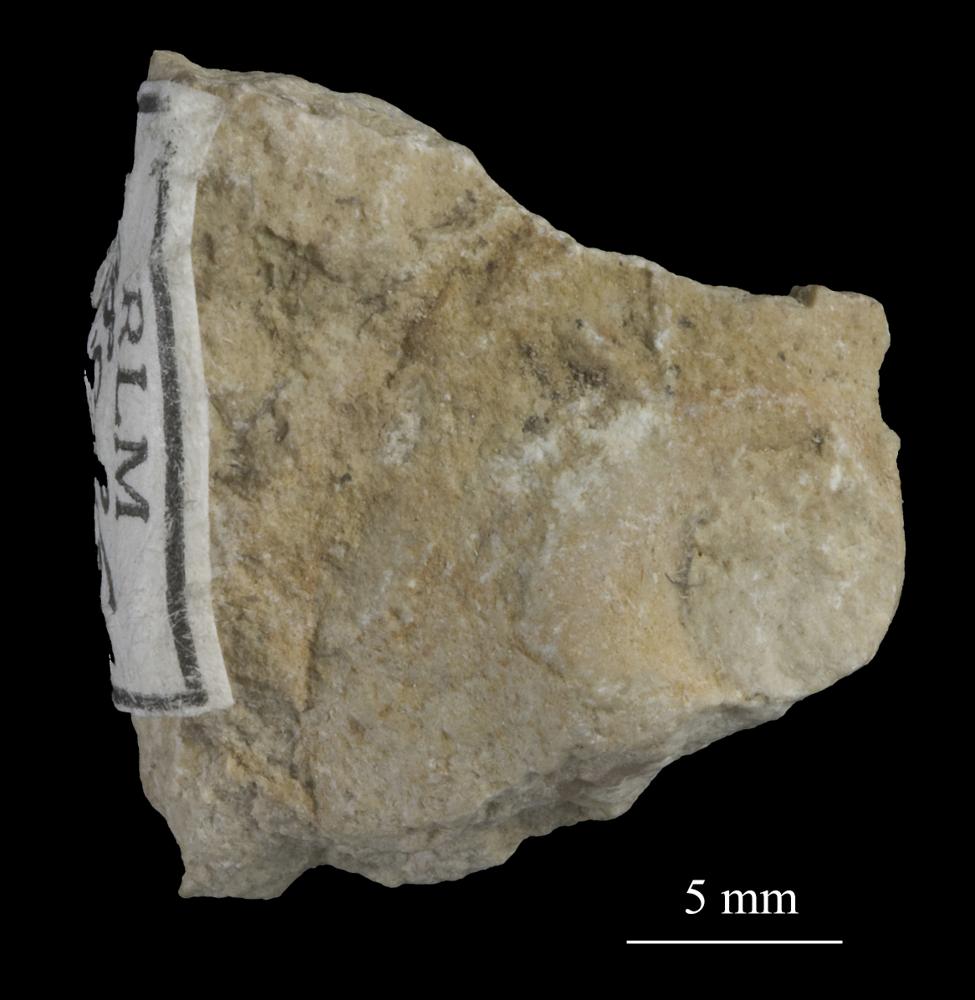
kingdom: Animalia
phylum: Mollusca
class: Gastropoda
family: Bucaniidae
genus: Tetranota
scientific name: Tetranota Bucaniella lineata
